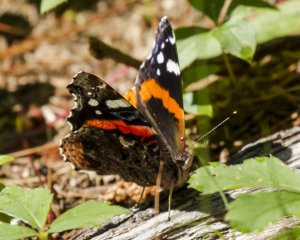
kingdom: Animalia
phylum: Arthropoda
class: Insecta
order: Lepidoptera
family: Nymphalidae
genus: Vanessa
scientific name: Vanessa atalanta
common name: Red Admiral
